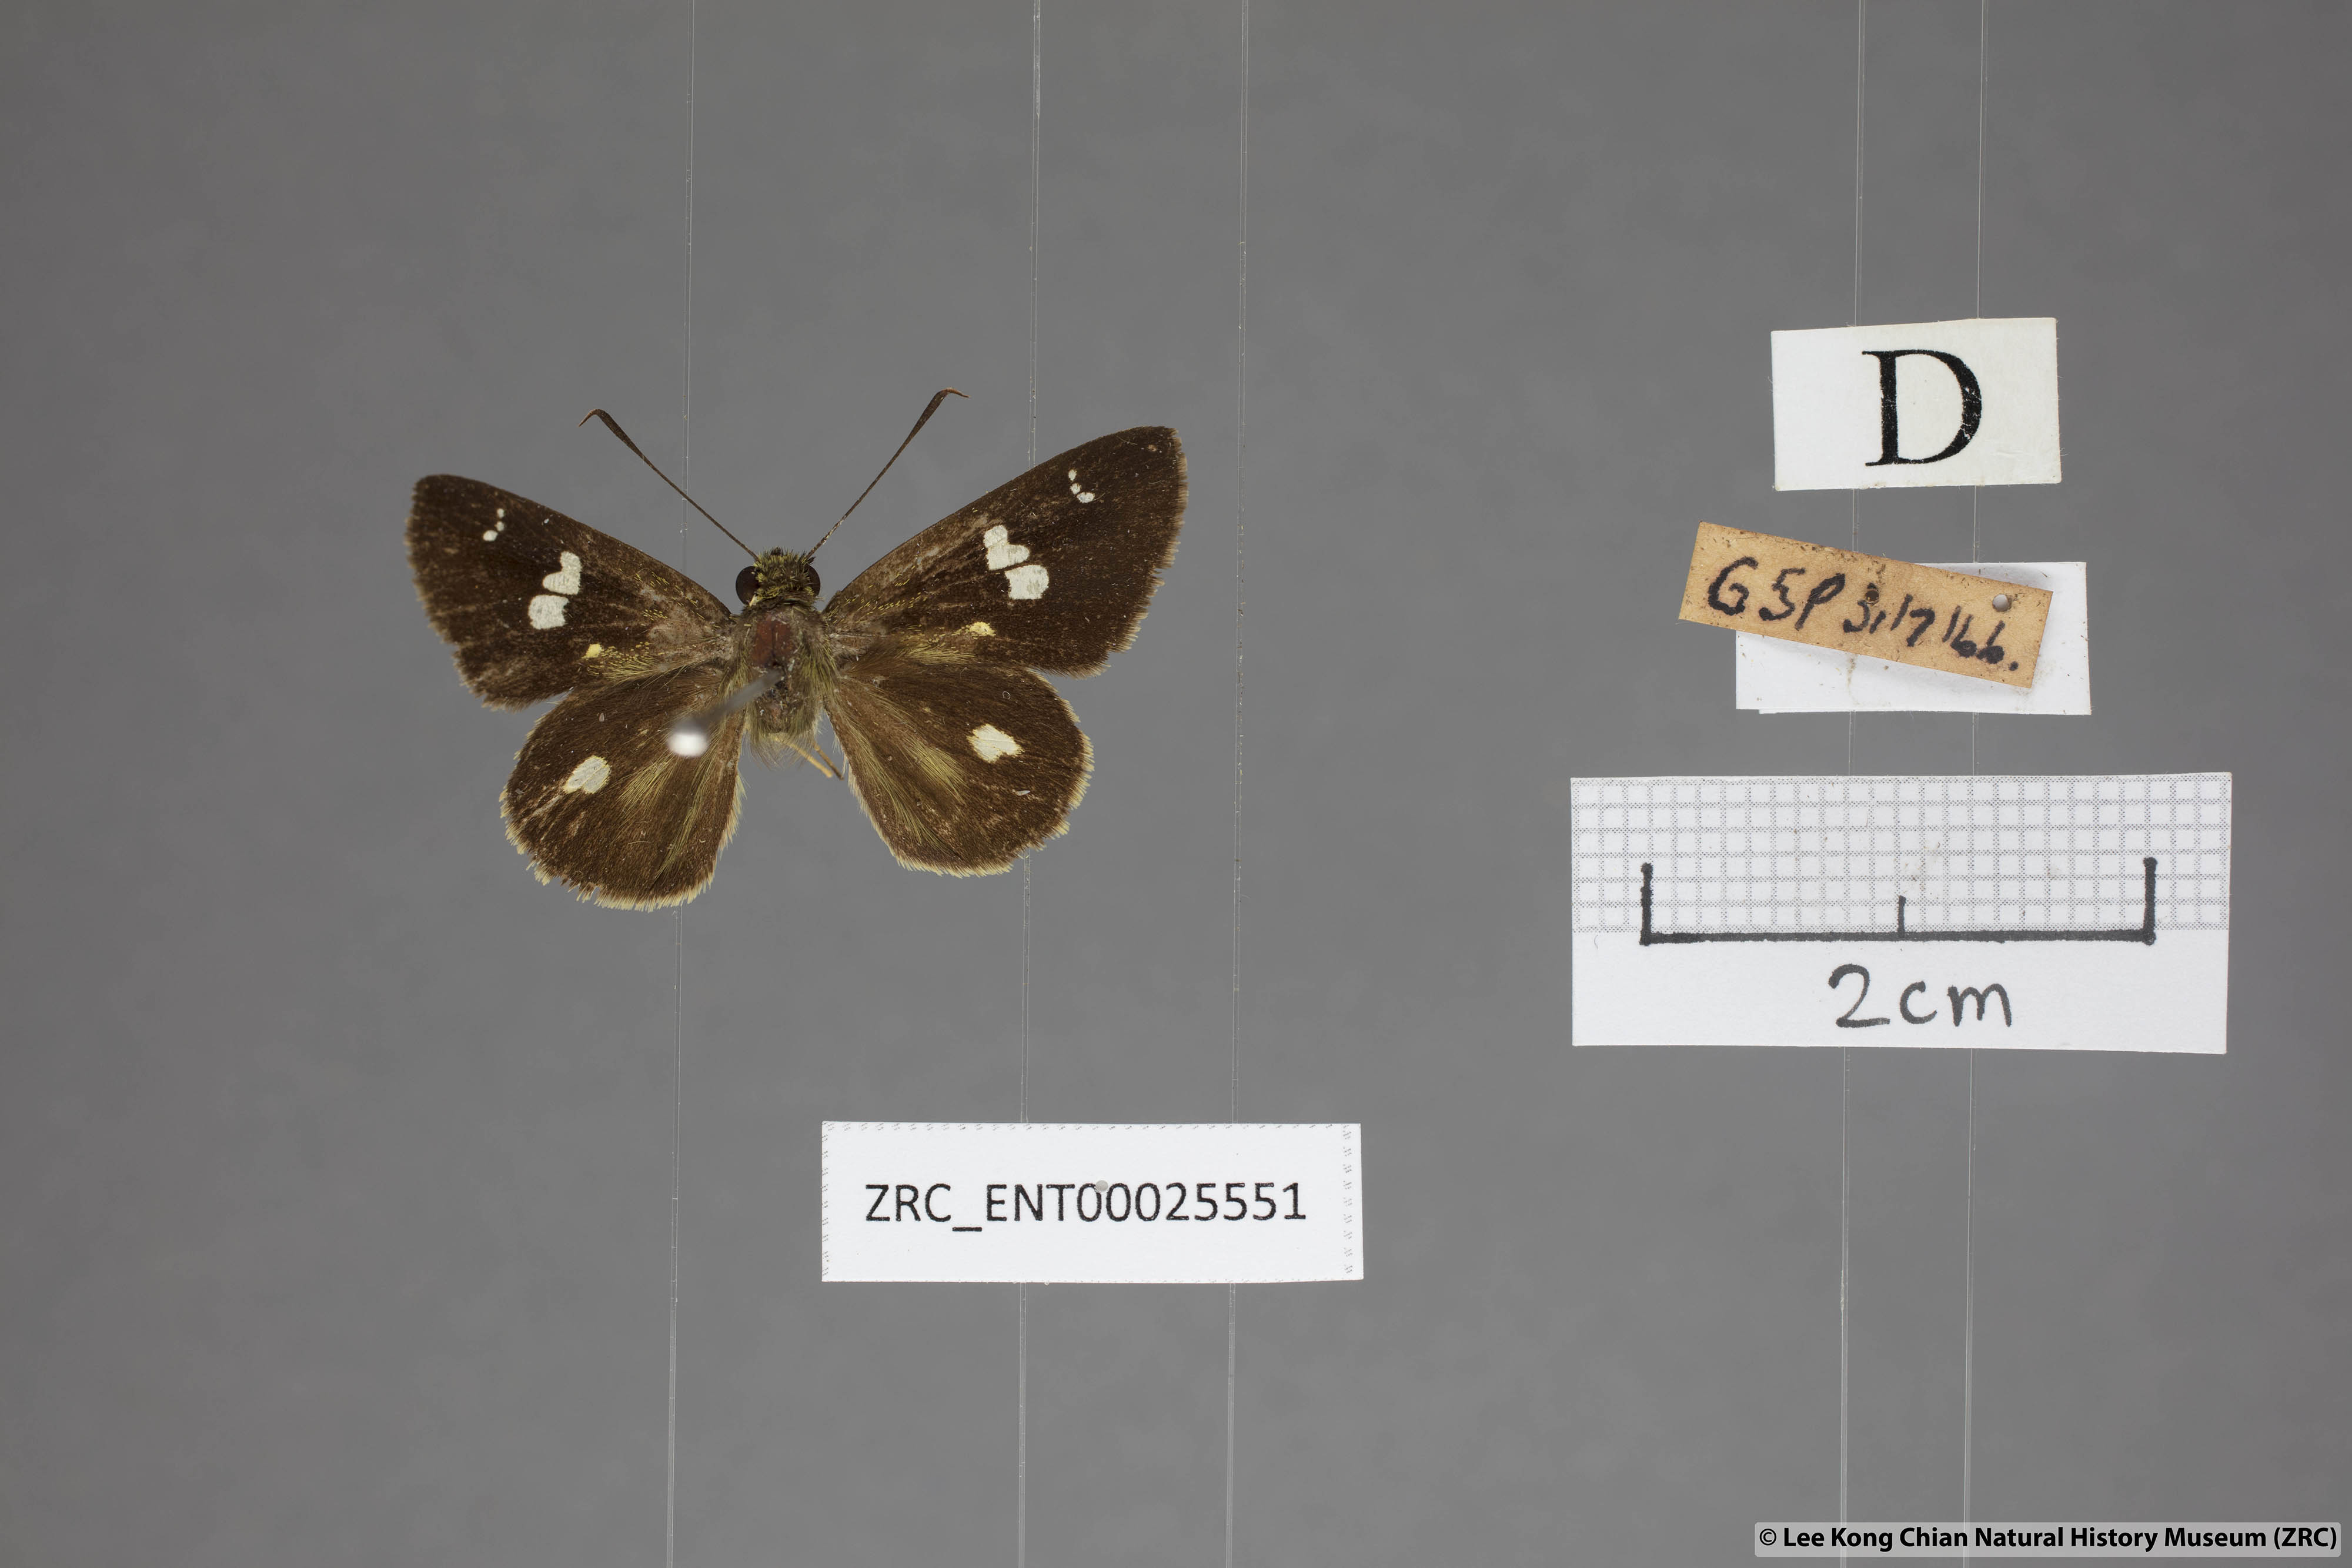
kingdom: Animalia
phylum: Arthropoda
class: Insecta
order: Lepidoptera
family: Hesperiidae
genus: Scobura
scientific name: Scobura phiditia
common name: Malay forest bob
